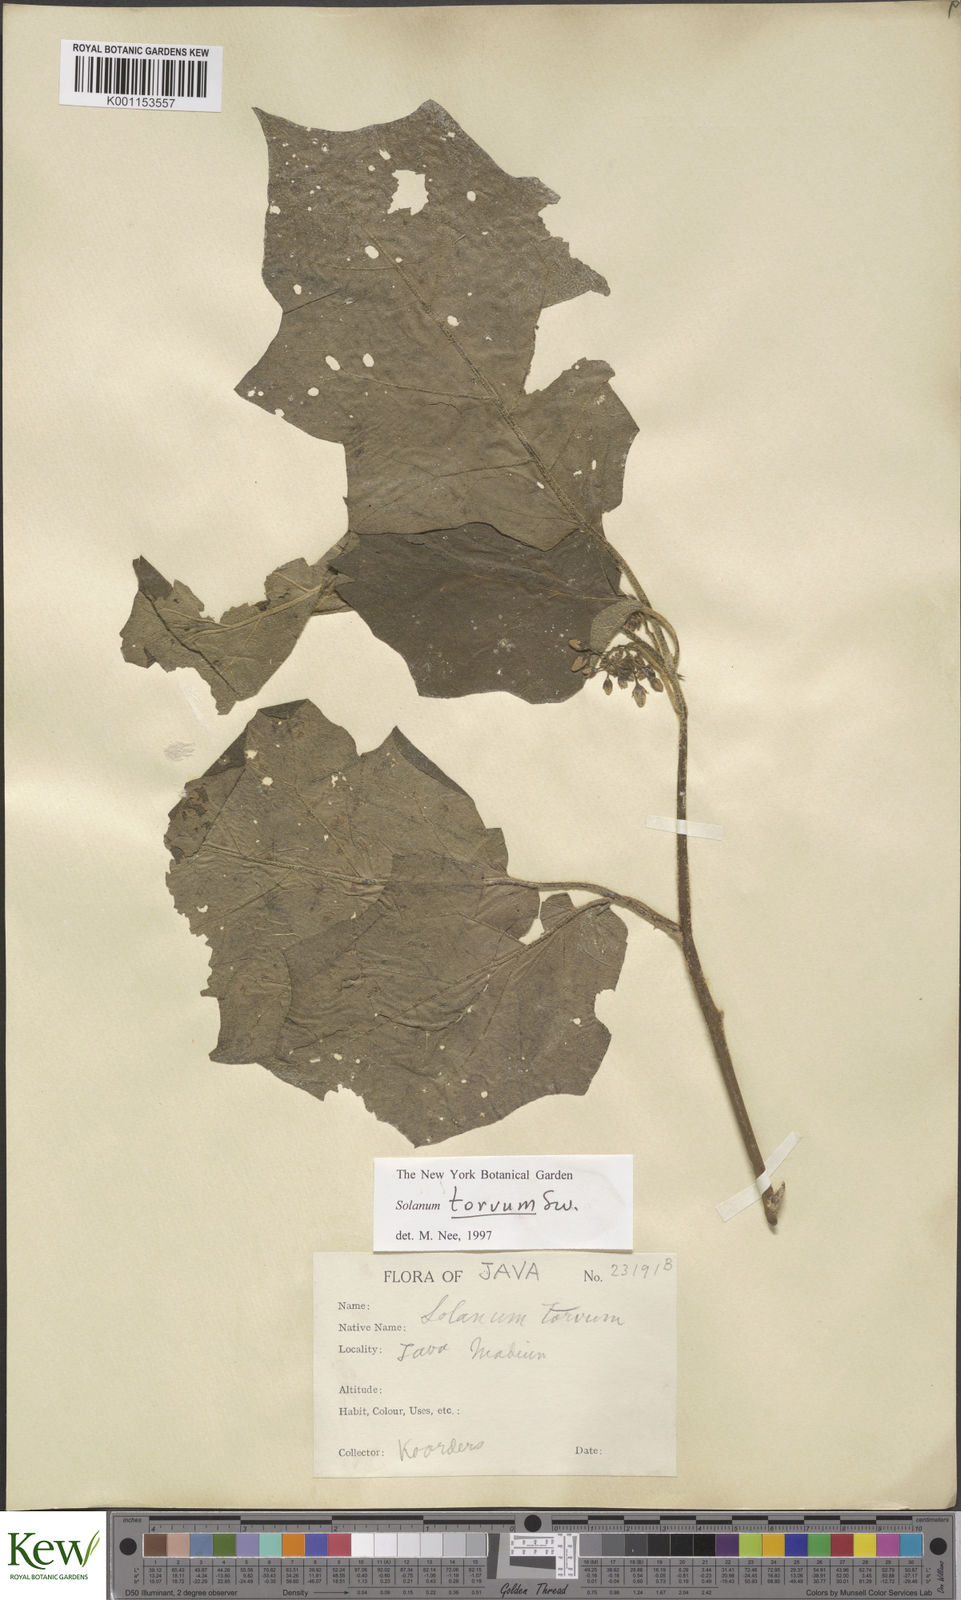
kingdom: Plantae
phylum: Tracheophyta
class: Magnoliopsida
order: Solanales
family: Solanaceae
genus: Solanum
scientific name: Solanum torvum
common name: Turkey berry
